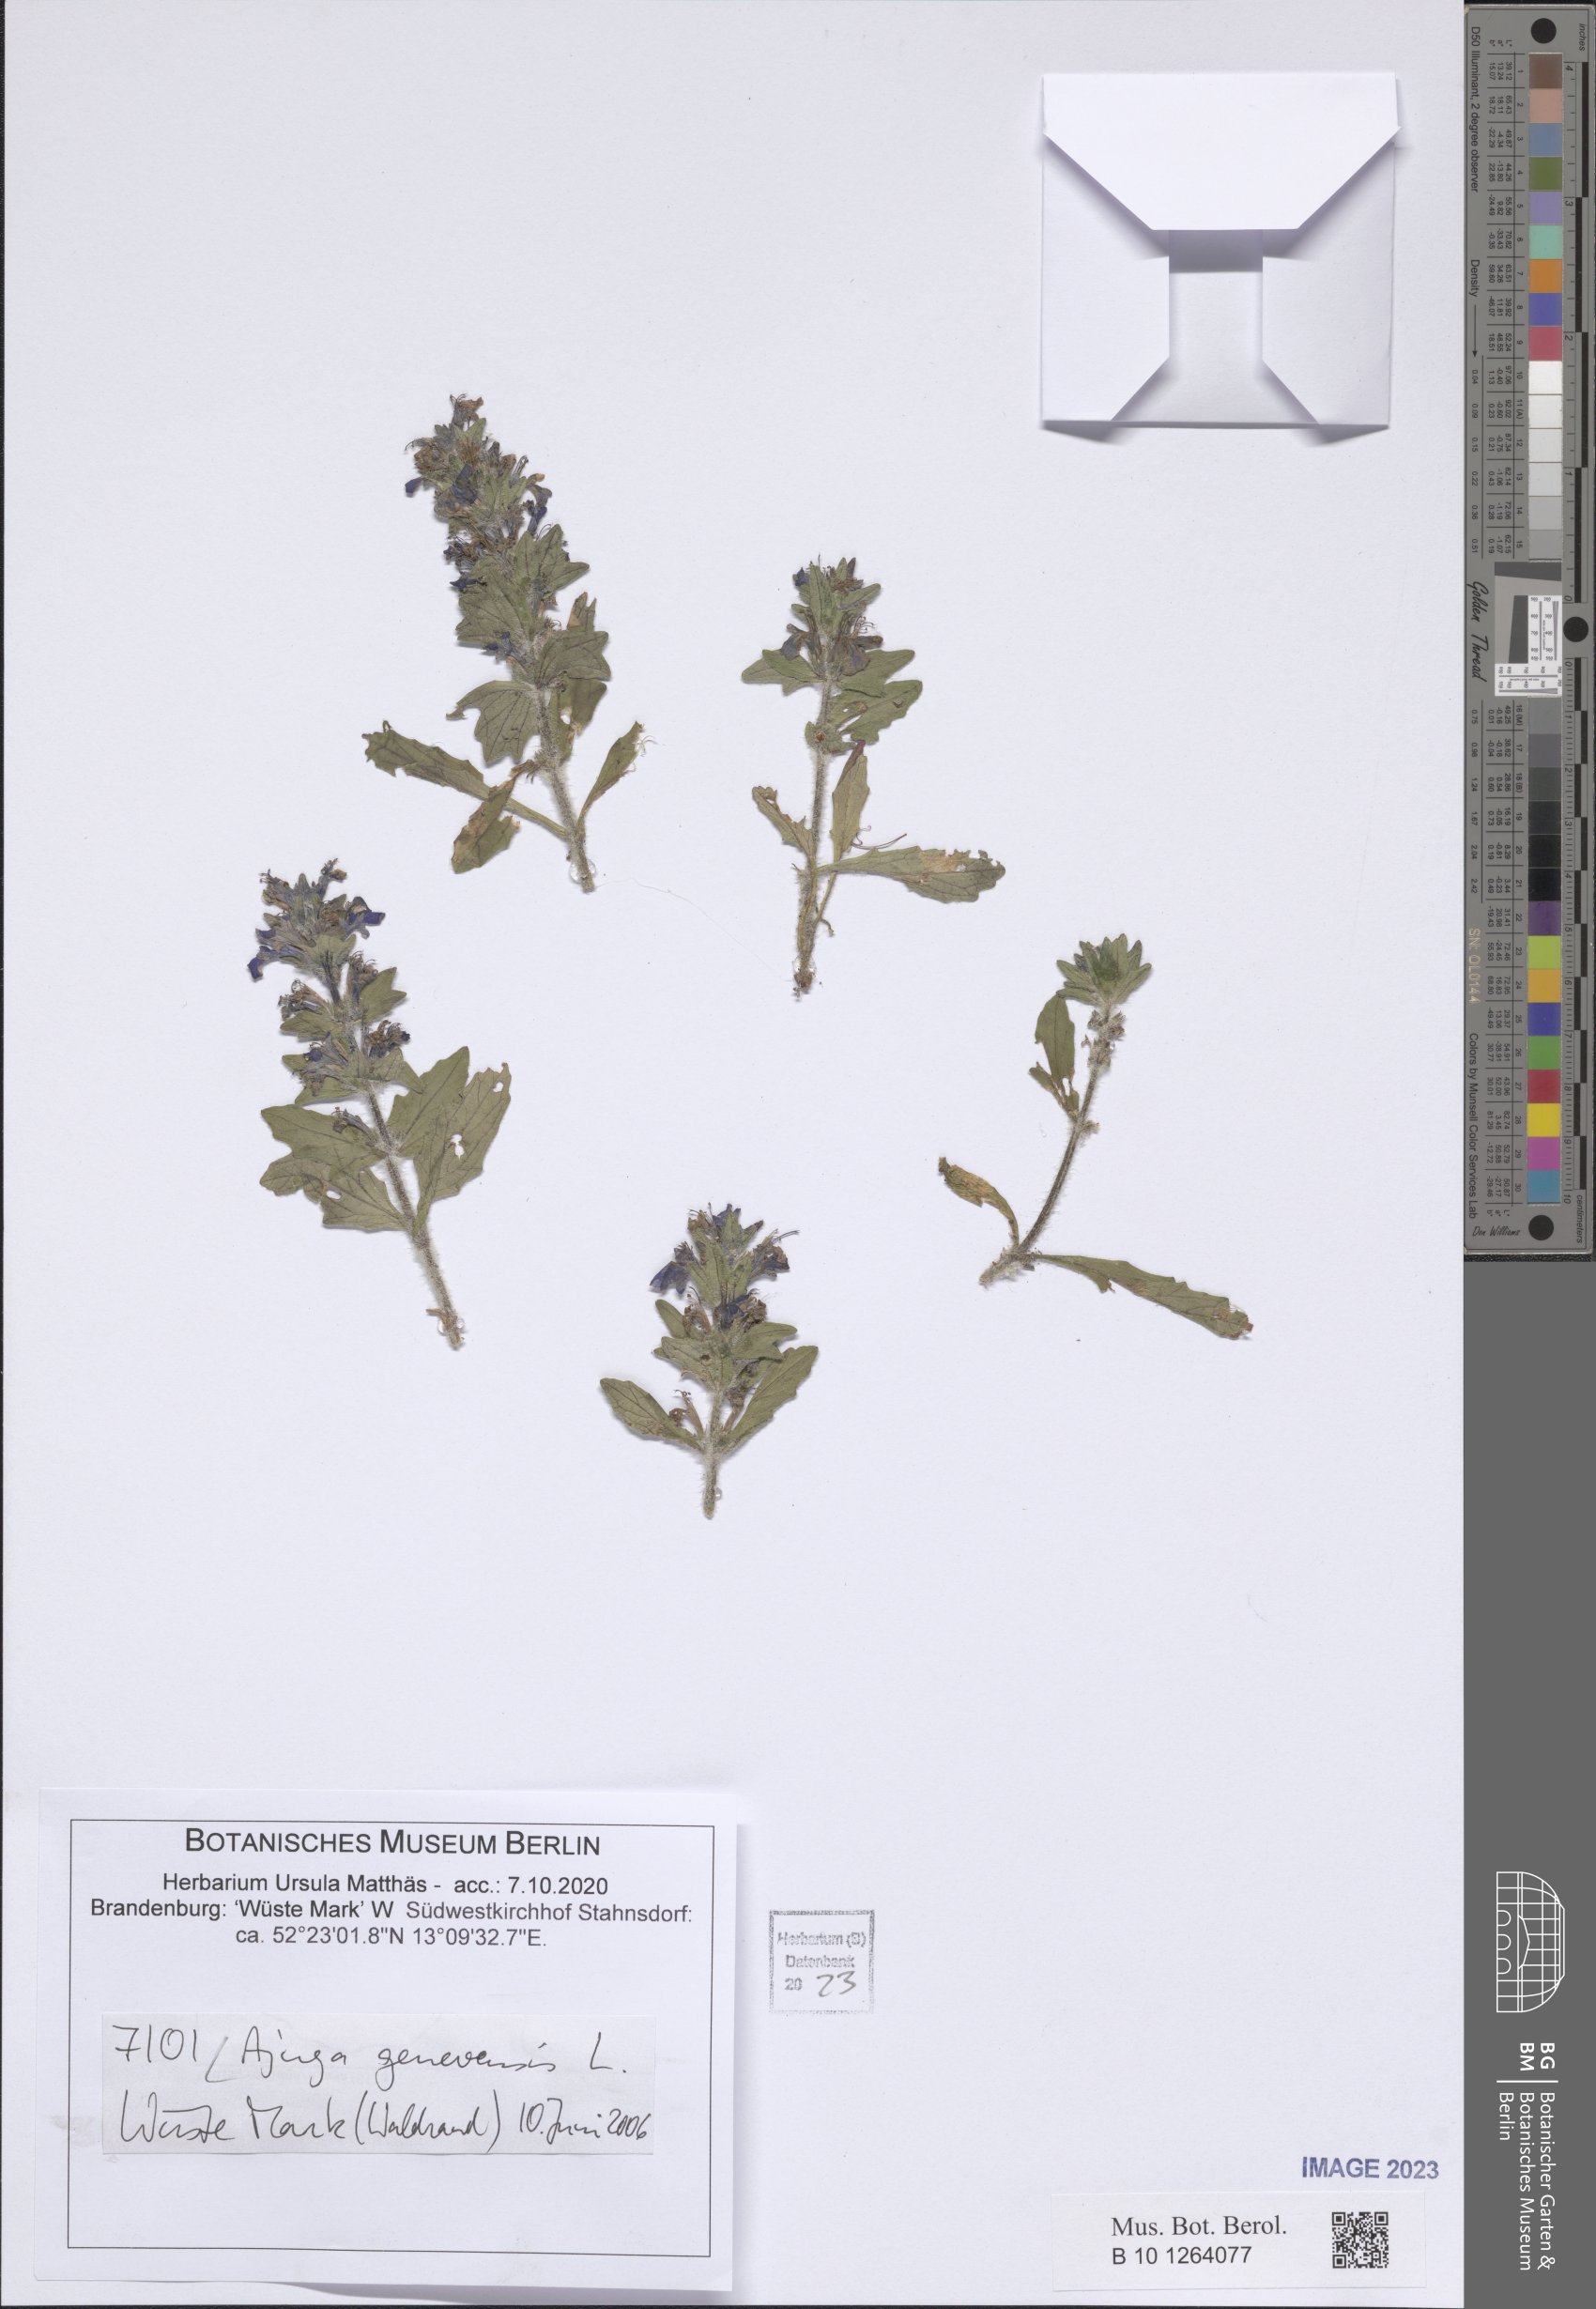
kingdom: Plantae
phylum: Tracheophyta
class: Magnoliopsida
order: Lamiales
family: Lamiaceae
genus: Ajuga
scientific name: Ajuga genevensis
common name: Blue bugle
